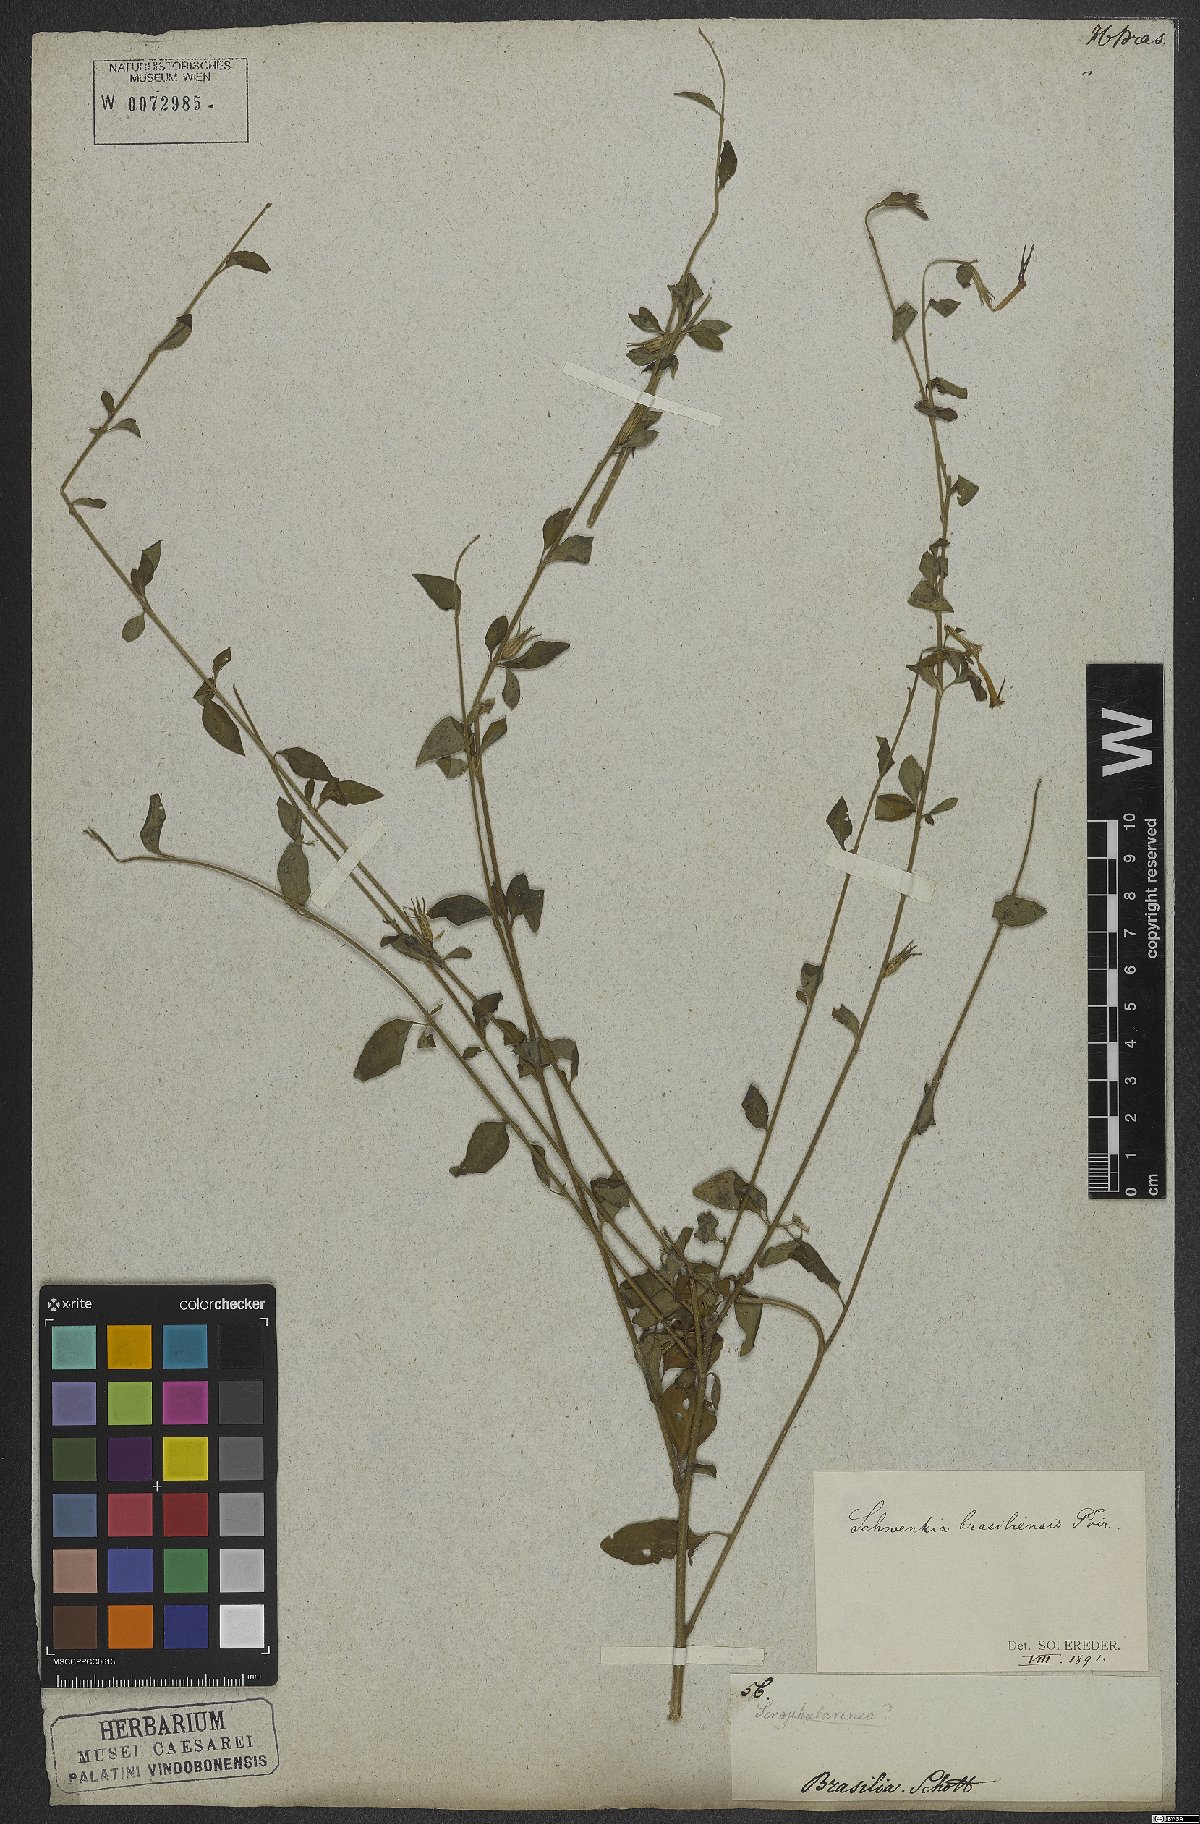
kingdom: Plantae
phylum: Tracheophyta
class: Magnoliopsida
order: Solanales
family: Solanaceae
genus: Schwenckia
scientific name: Schwenckia lateriflora
